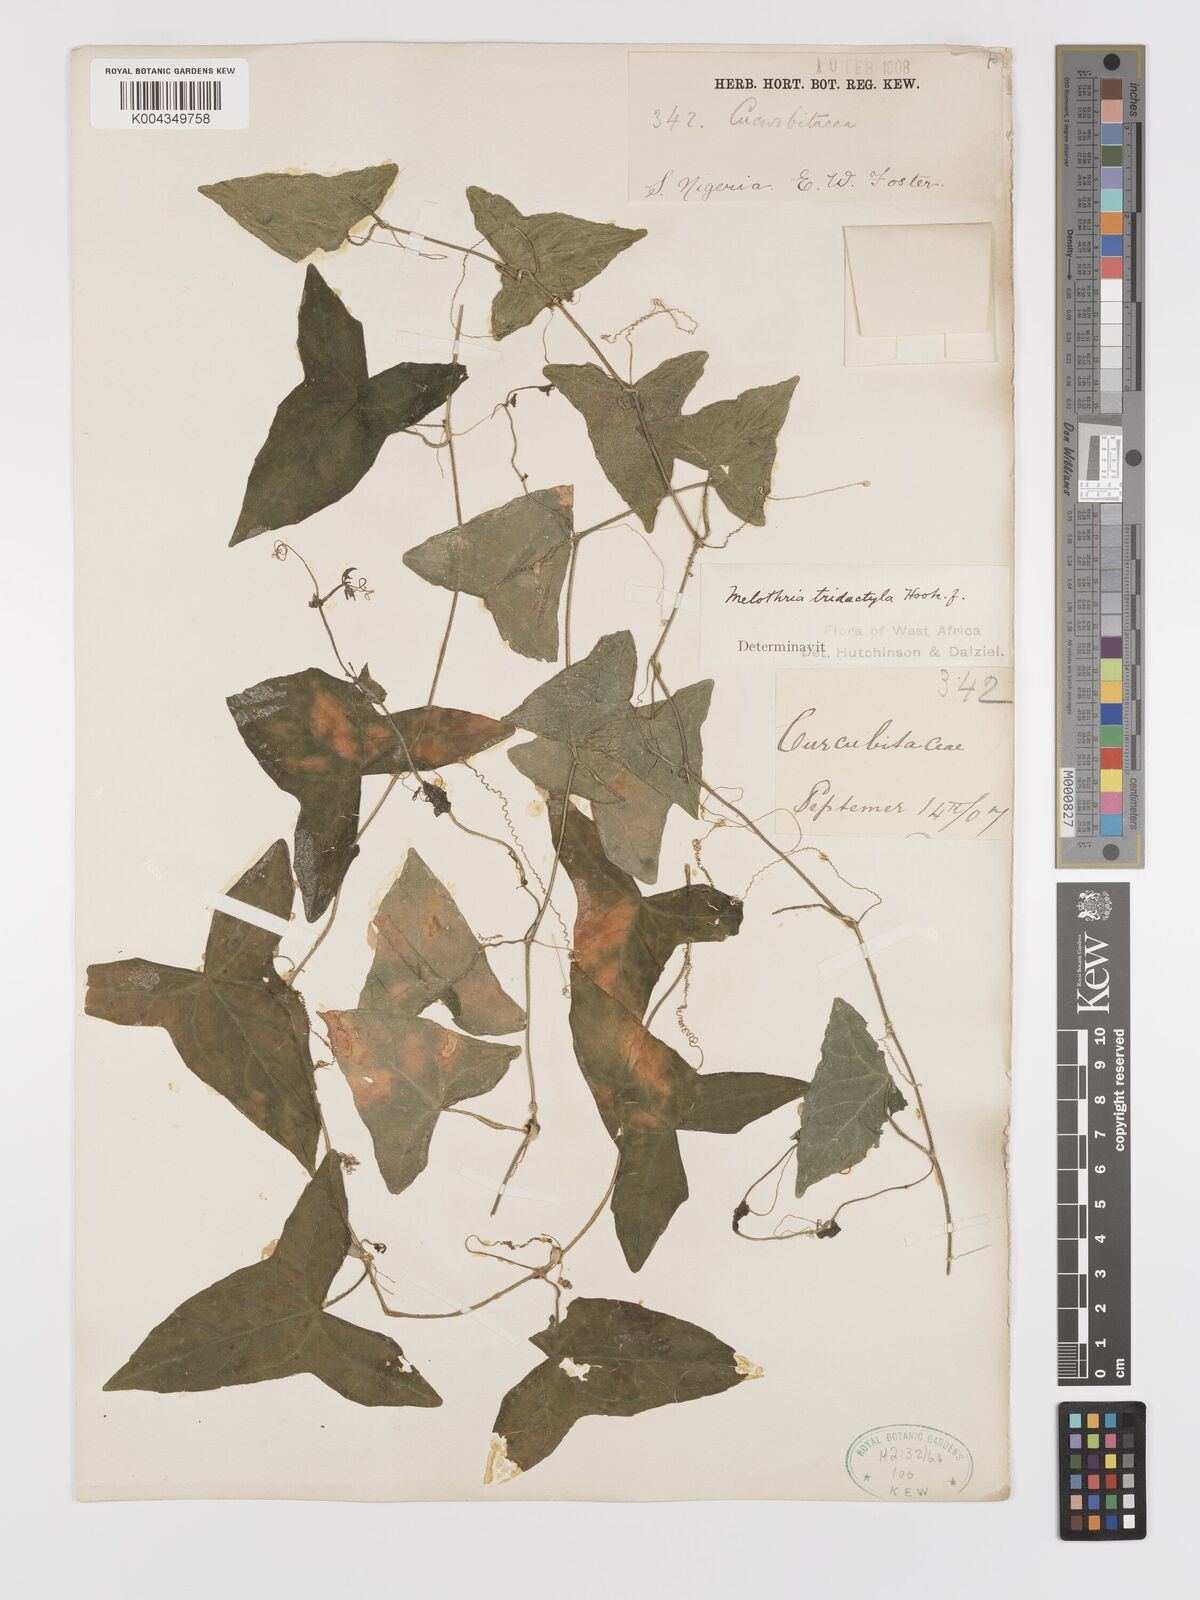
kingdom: Plantae
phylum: Tracheophyta
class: Magnoliopsida
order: Cucurbitales
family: Cucurbitaceae
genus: Zehneria
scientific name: Zehneria thwaitesii
